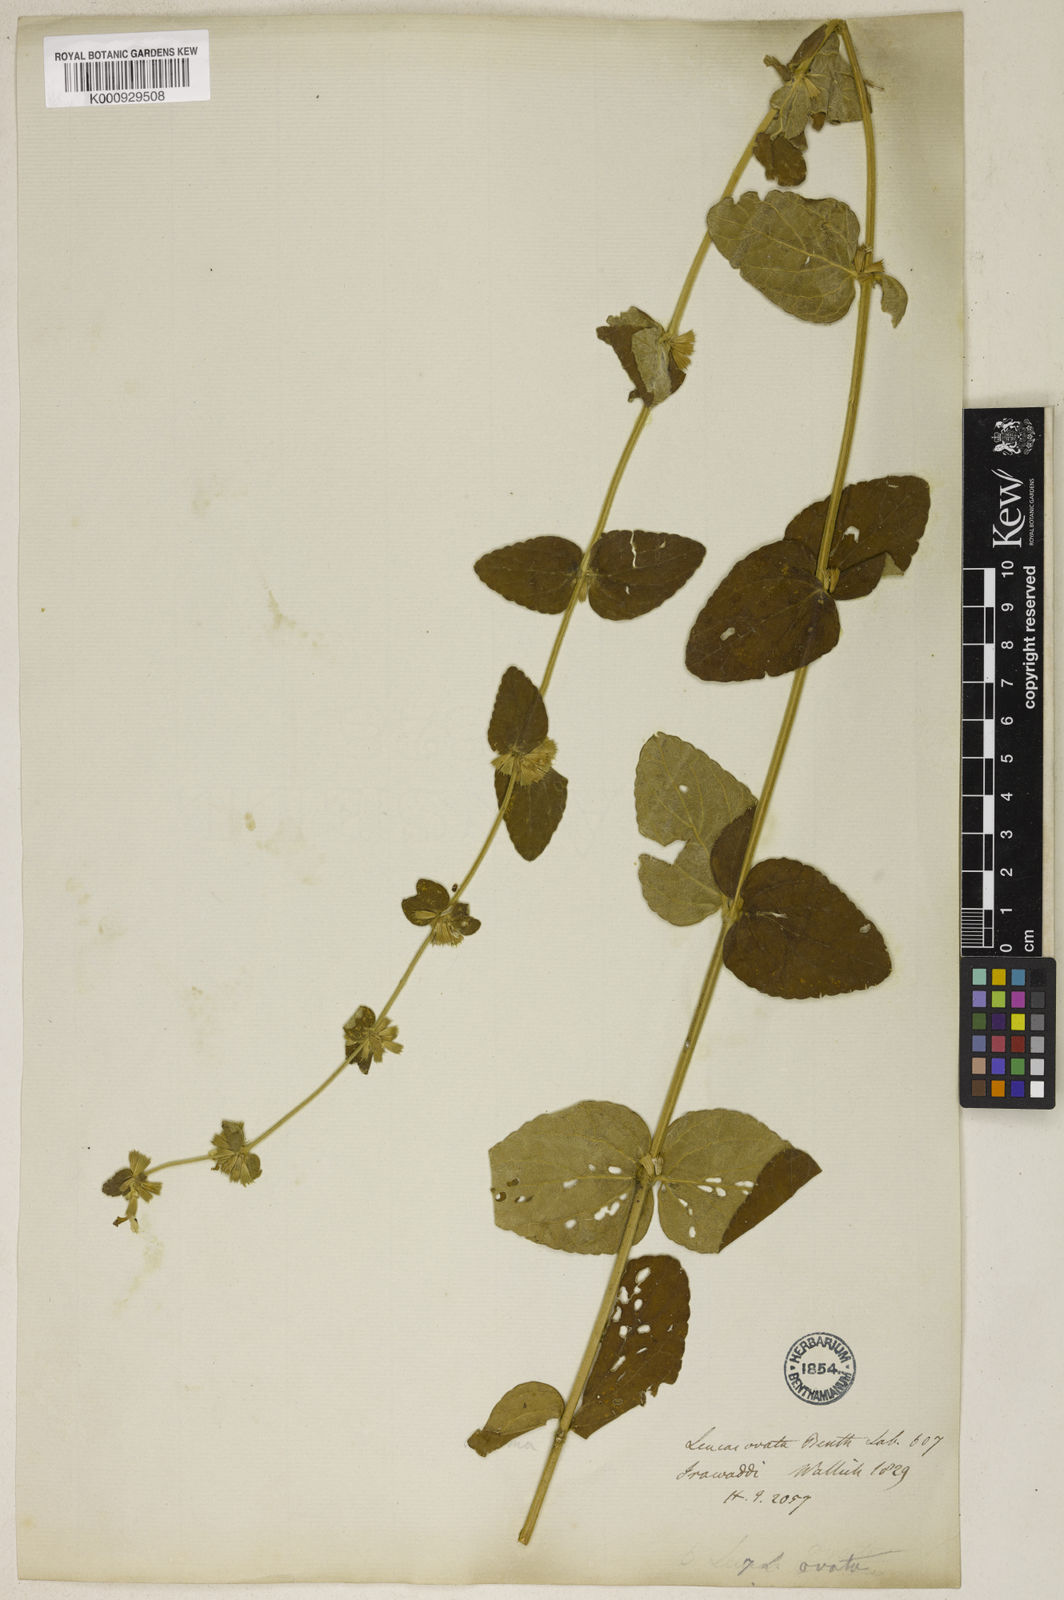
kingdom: Plantae
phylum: Tracheophyta
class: Magnoliopsida
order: Lamiales
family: Lamiaceae
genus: Leucas
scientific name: Leucas ovata
